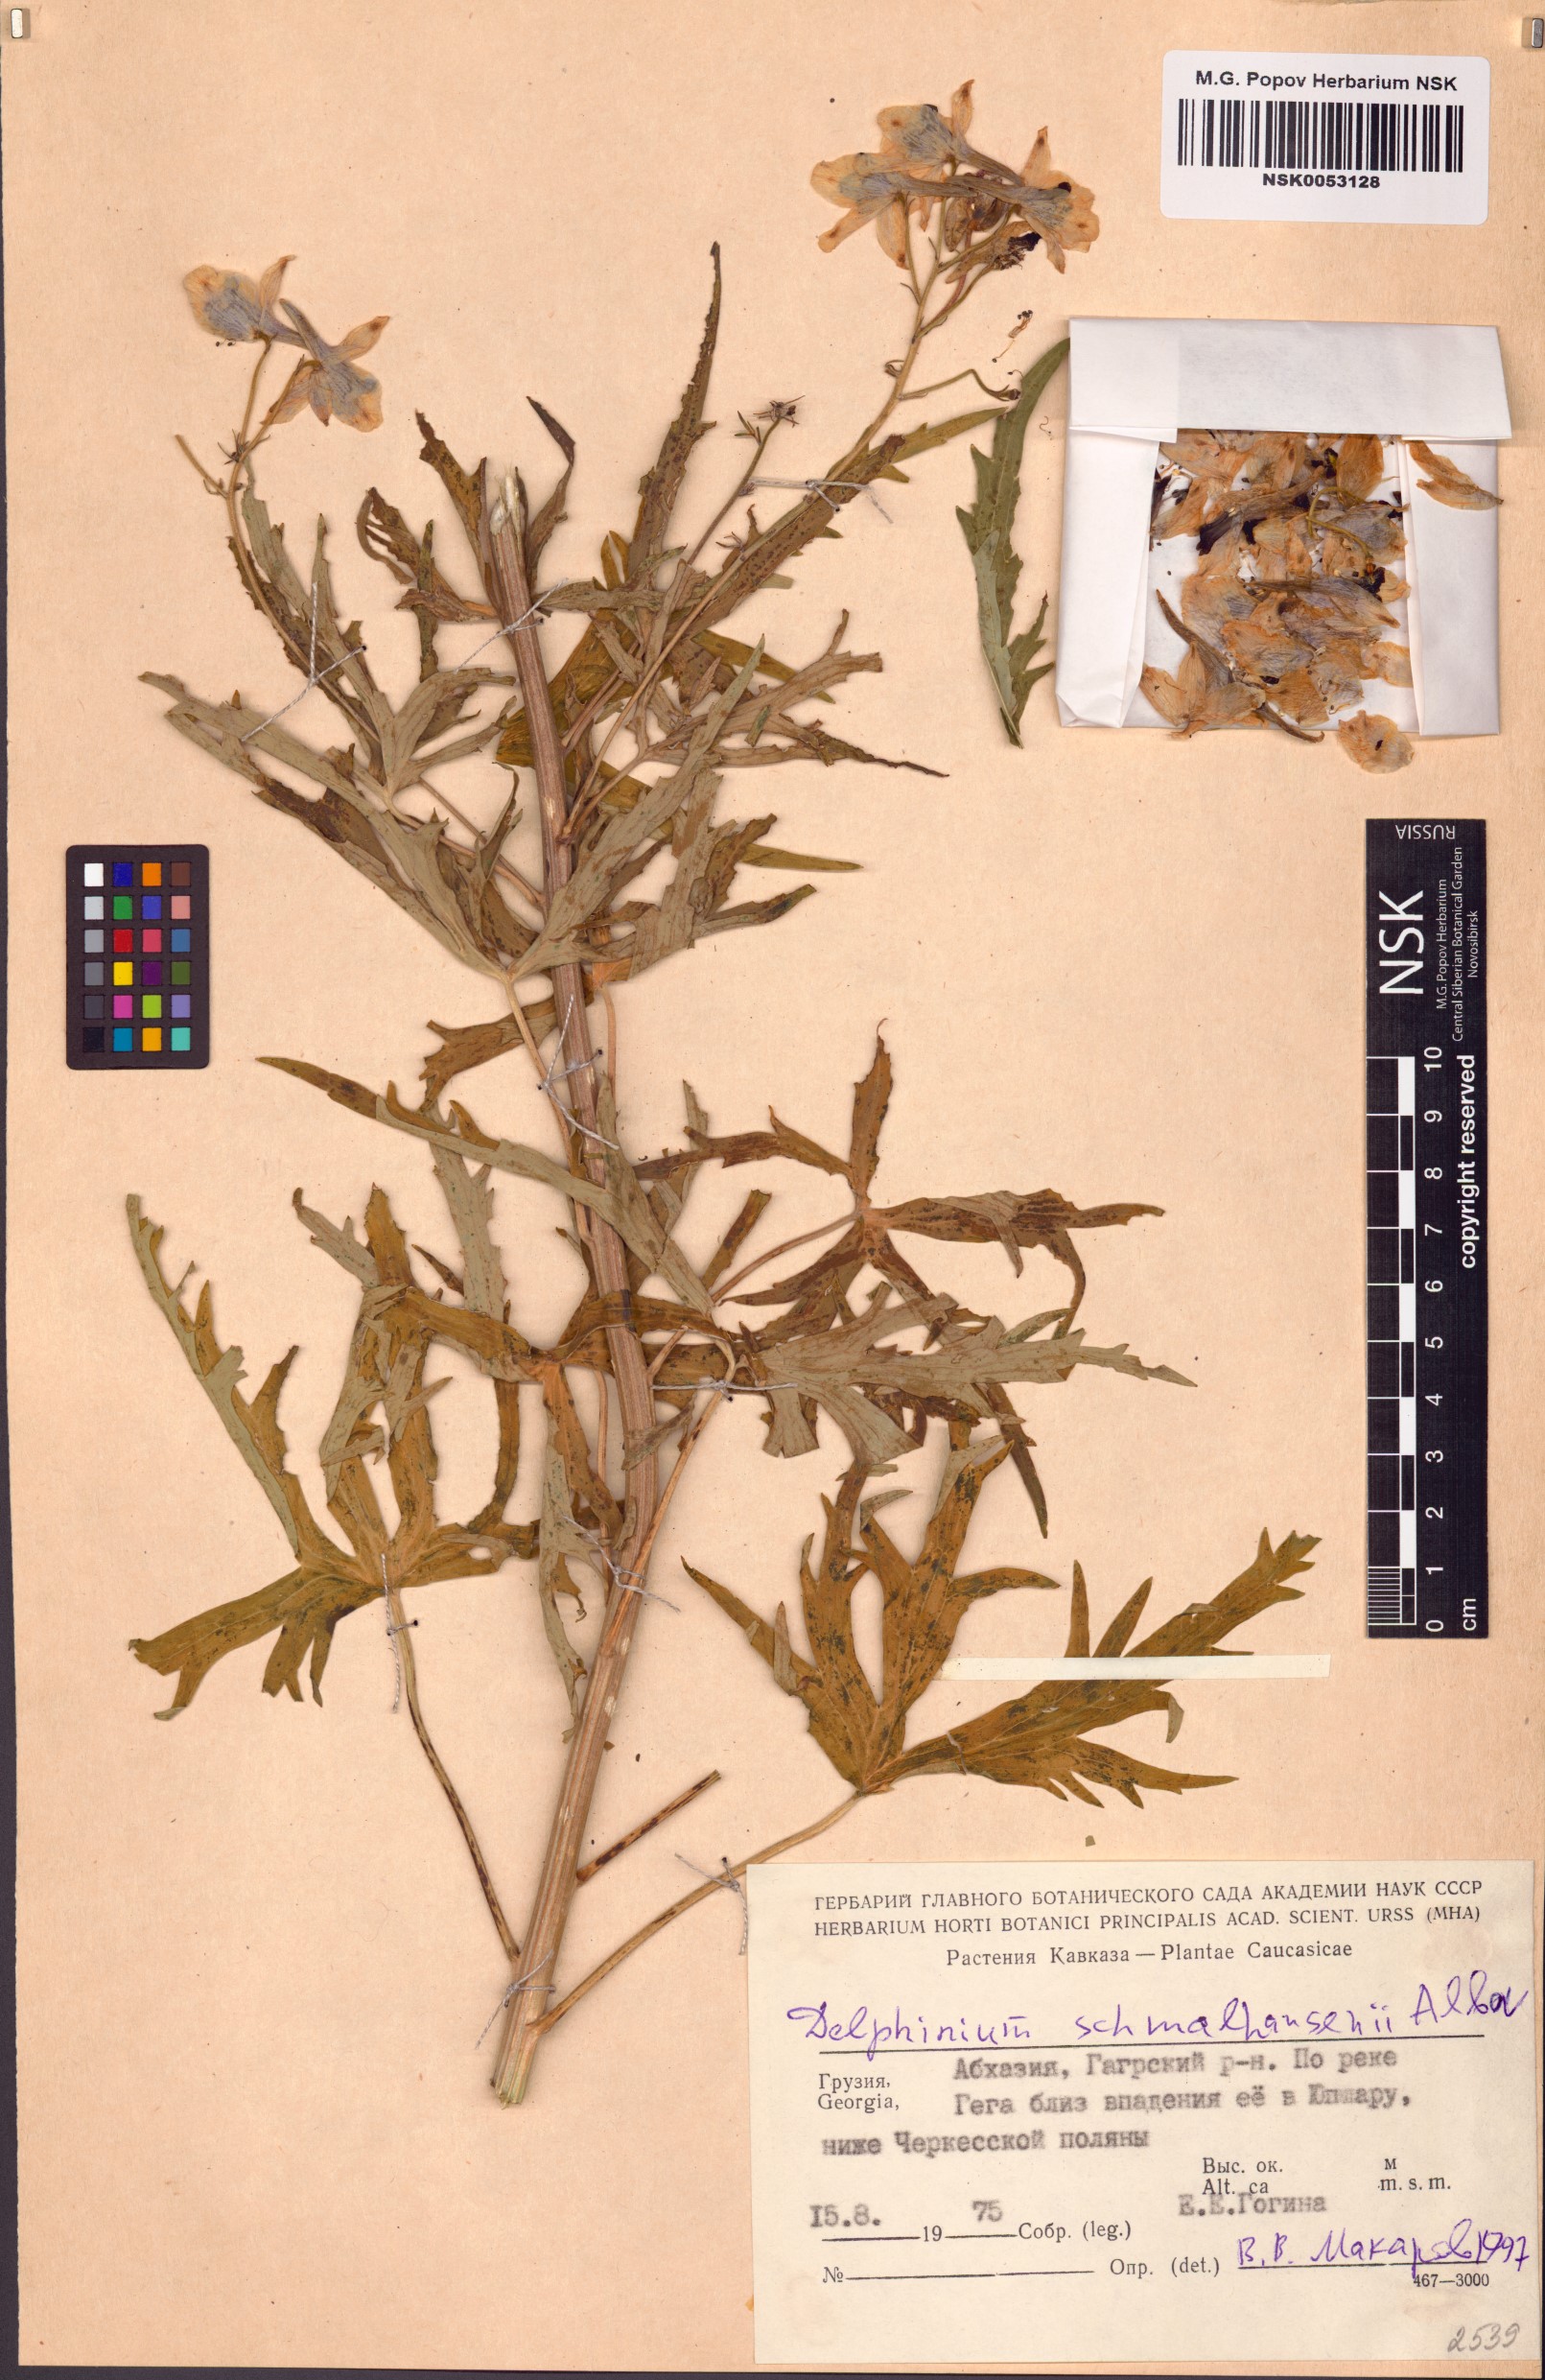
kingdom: Plantae
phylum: Tracheophyta
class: Magnoliopsida
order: Ranunculales
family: Ranunculaceae
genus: Delphinium
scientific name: Delphinium schmalhausenii
